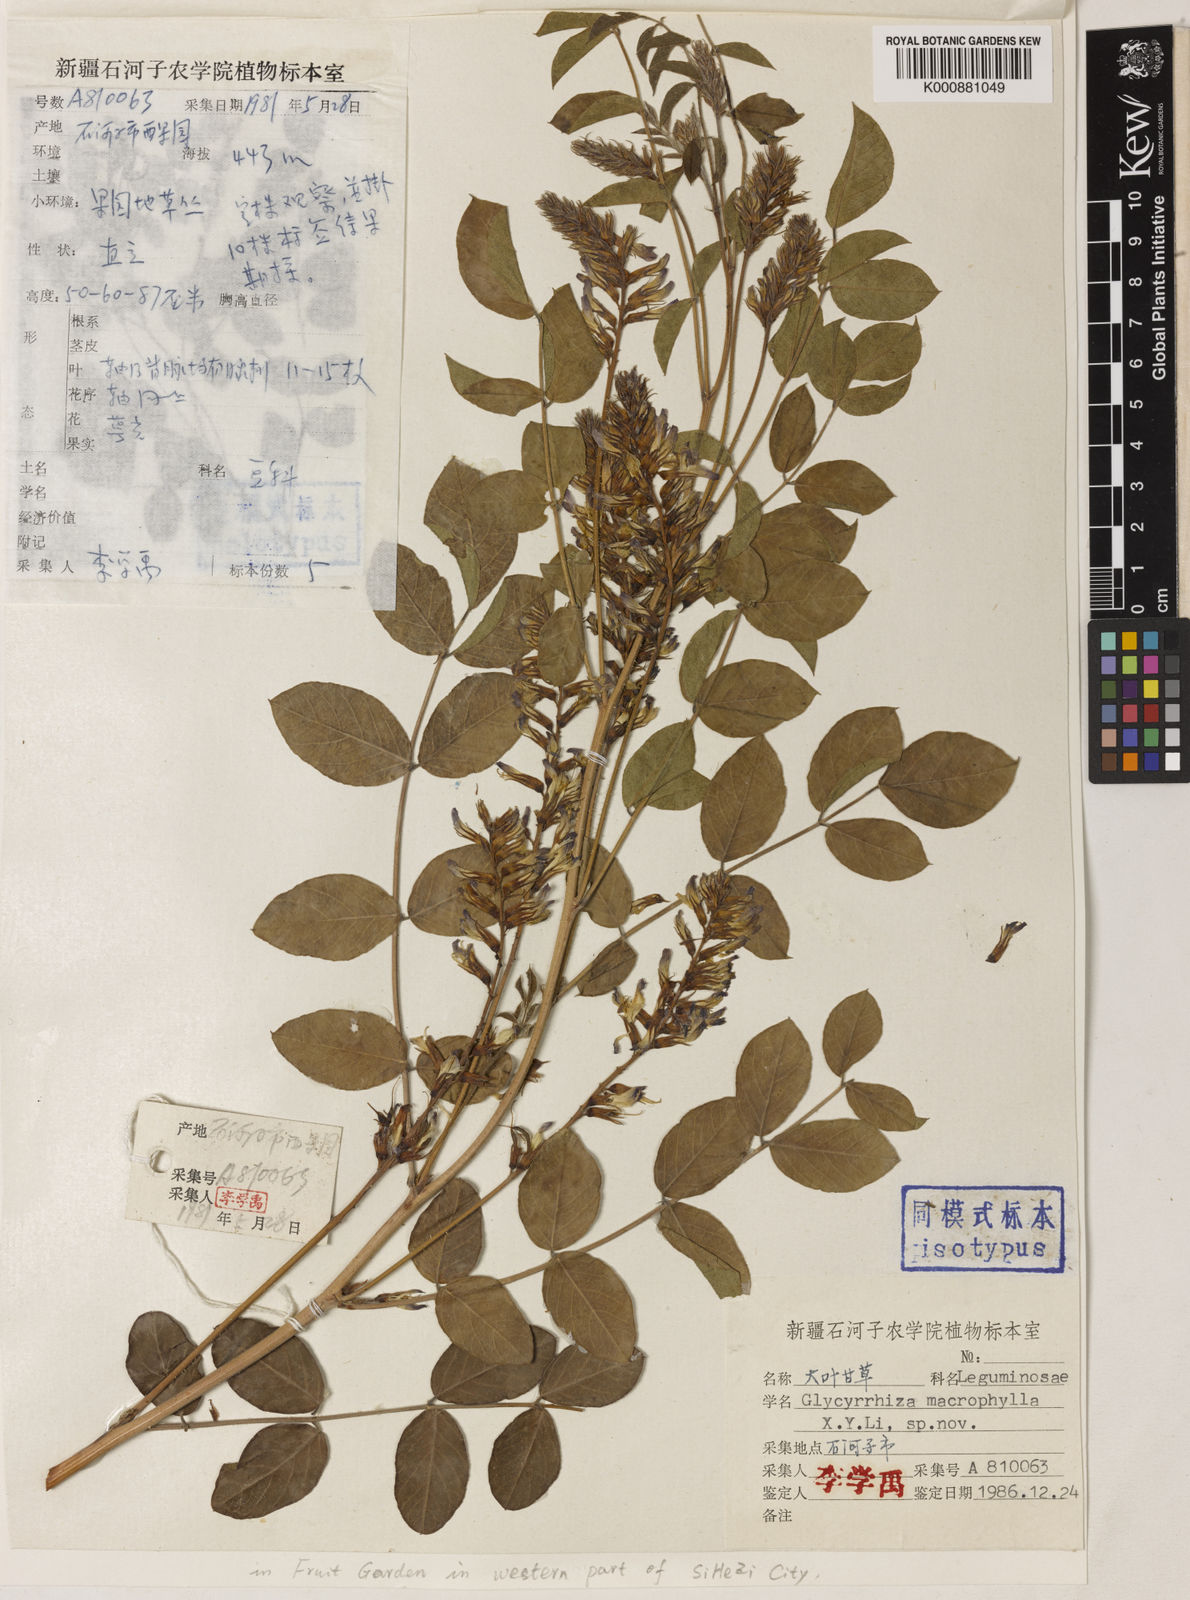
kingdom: Plantae
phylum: Tracheophyta
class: Magnoliopsida
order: Fabales
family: Fabaceae
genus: Glycyrrhiza
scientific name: Glycyrrhiza aspera
